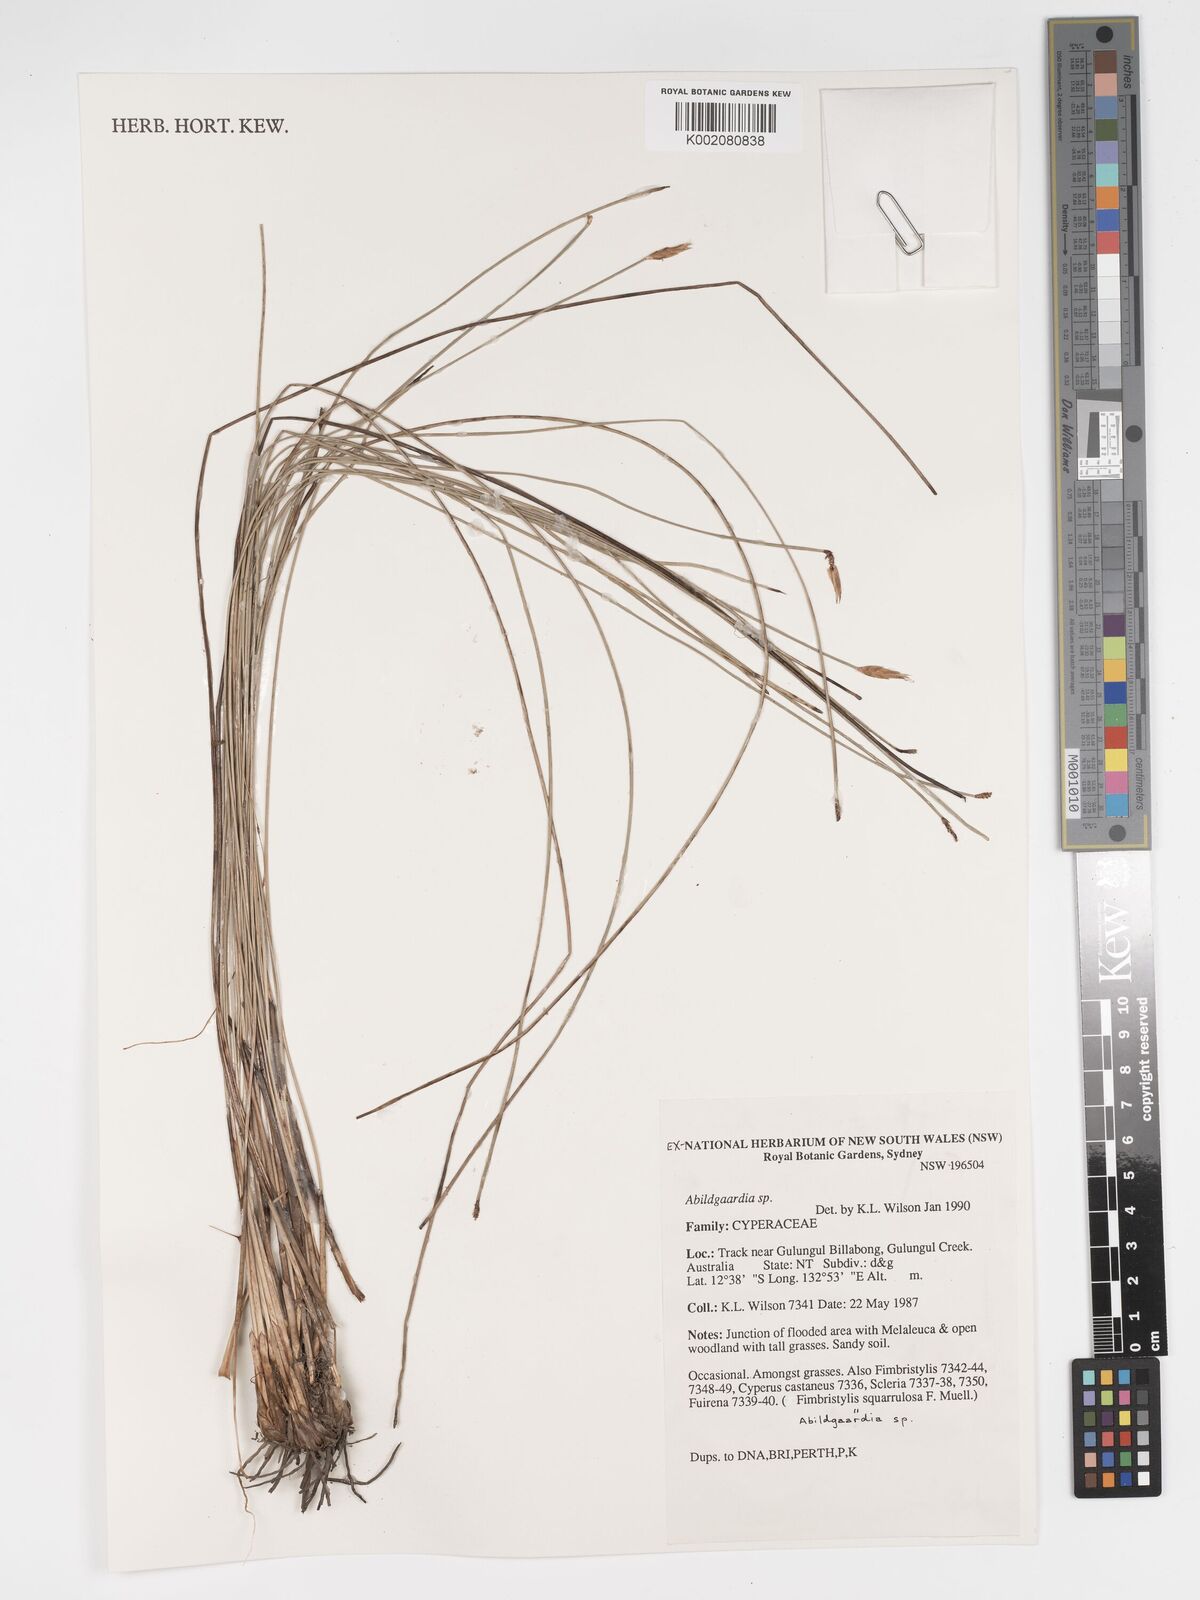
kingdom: Plantae
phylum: Tracheophyta
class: Liliopsida
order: Poales
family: Cyperaceae
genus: Bulbostylis
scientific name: Bulbostylis
